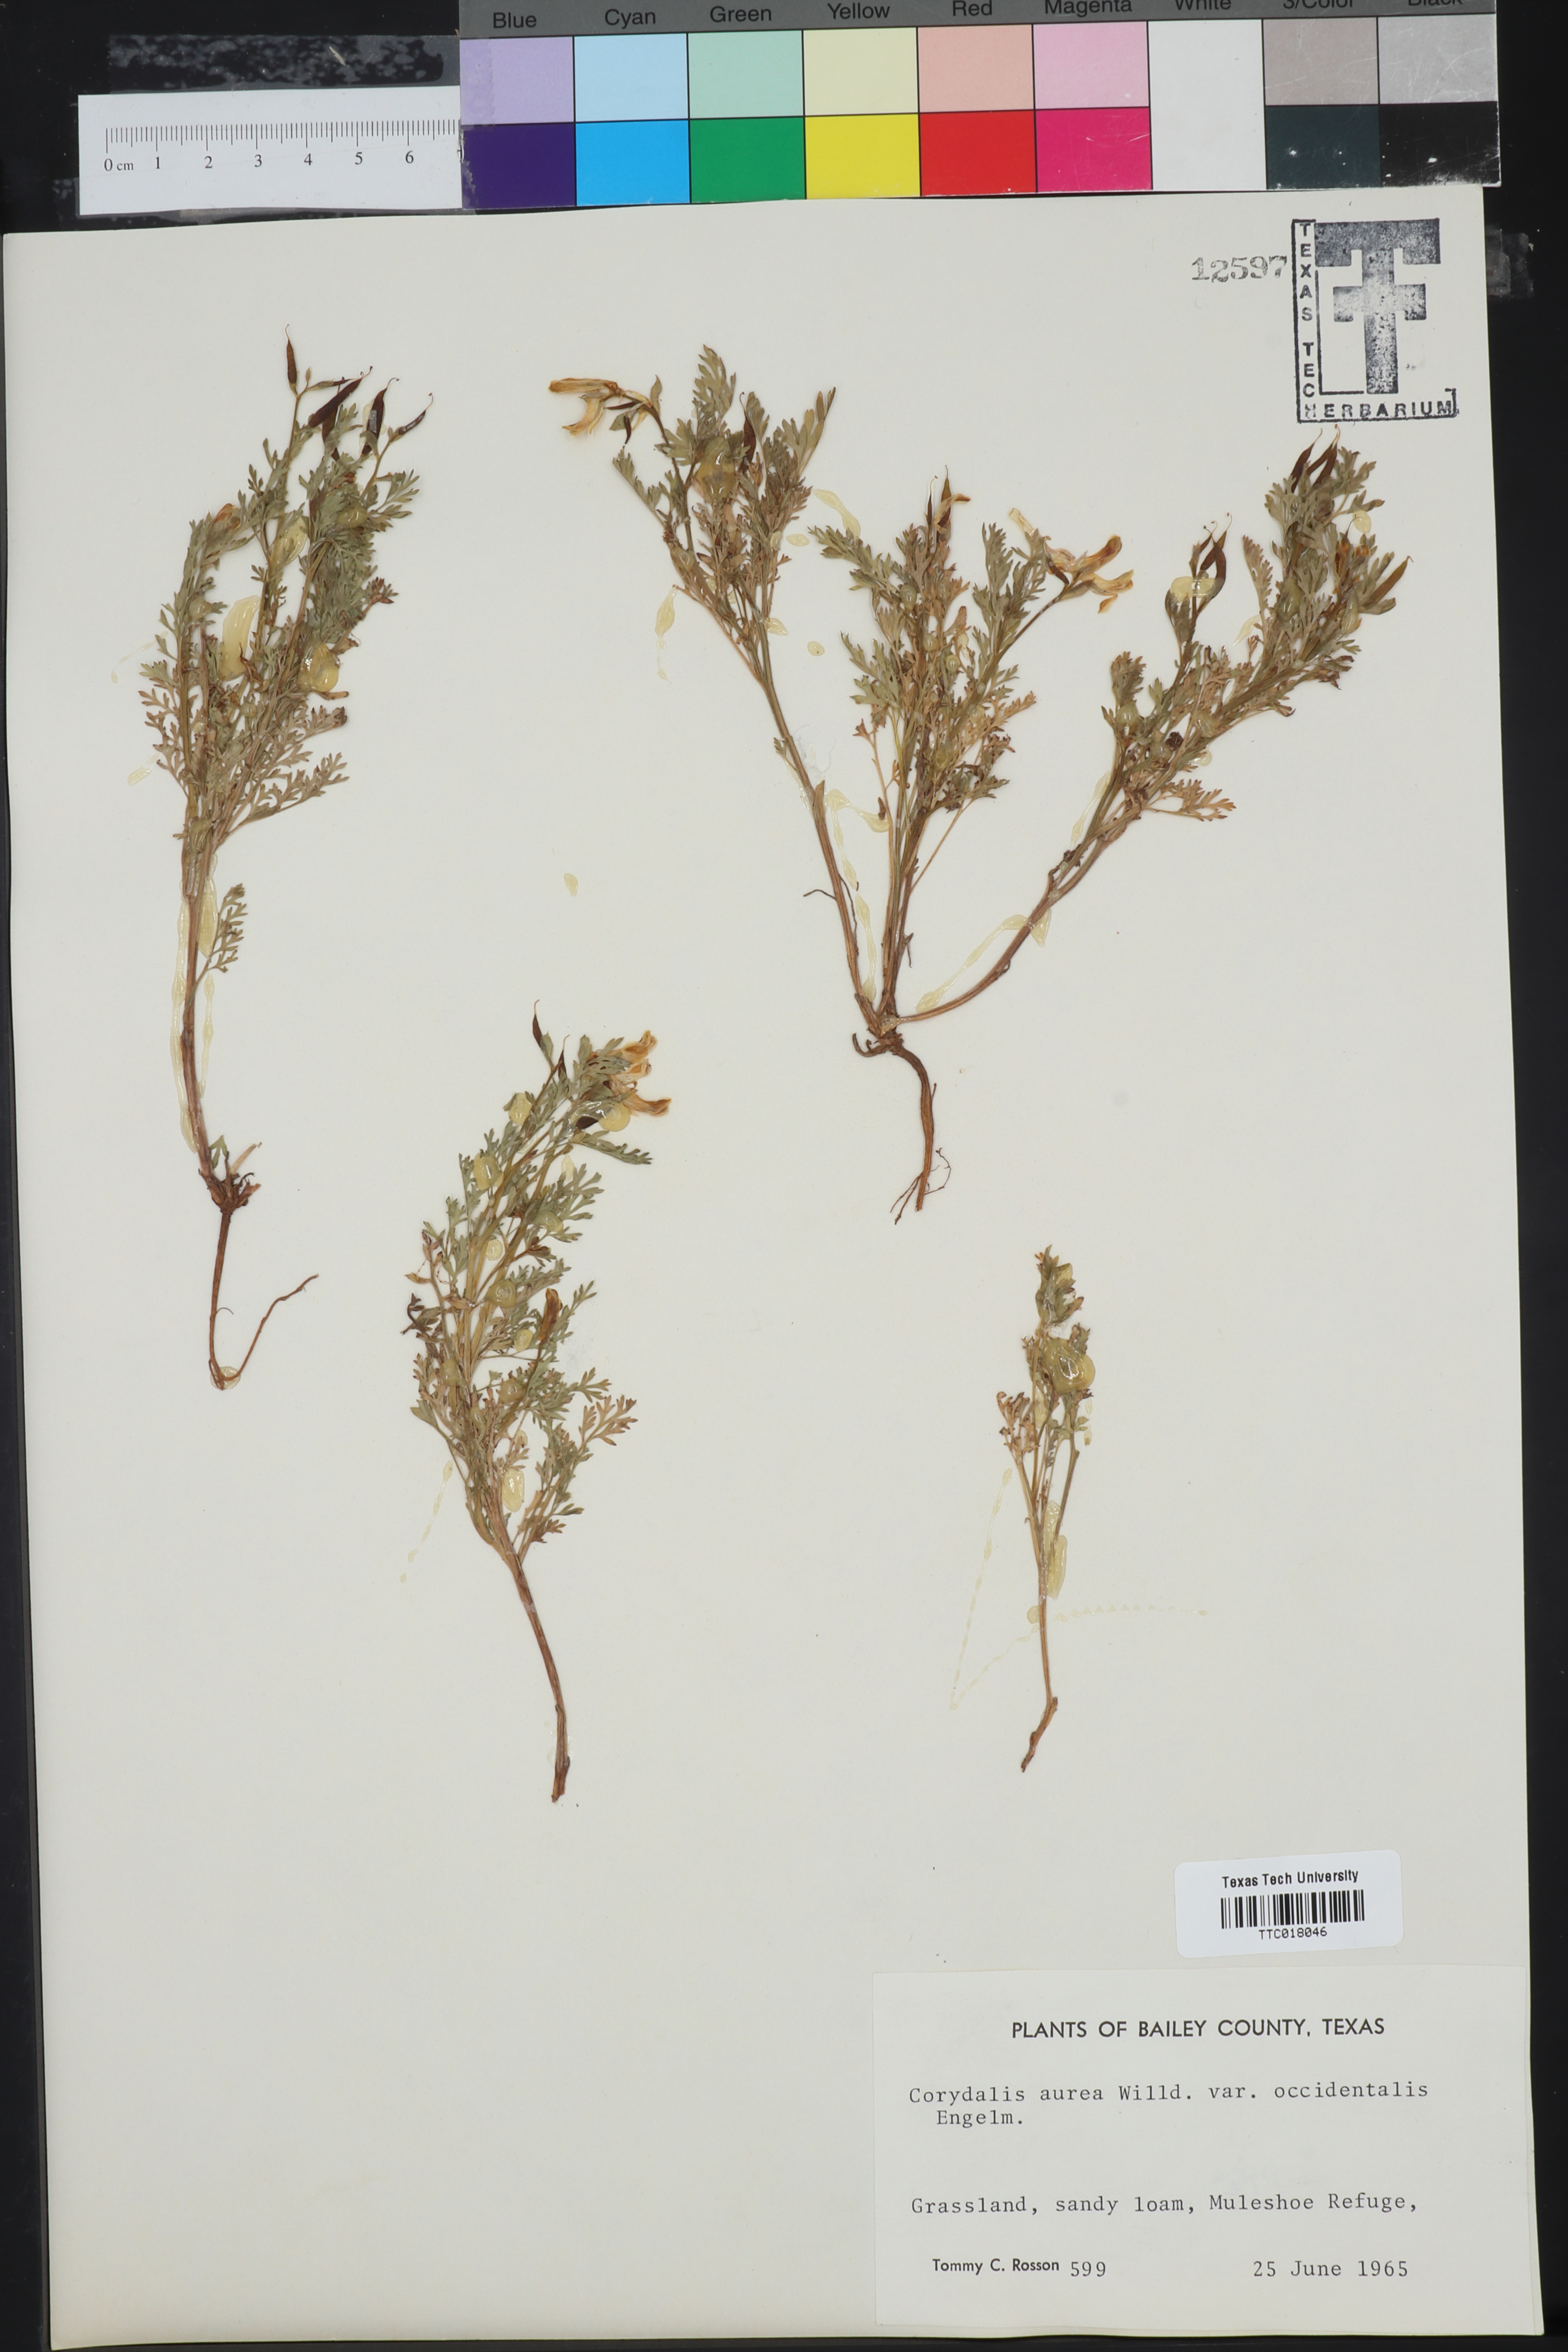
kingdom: Plantae
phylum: Tracheophyta
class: Magnoliopsida
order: Ranunculales
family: Papaveraceae
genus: Corydalis
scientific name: Corydalis curvisiliqua
